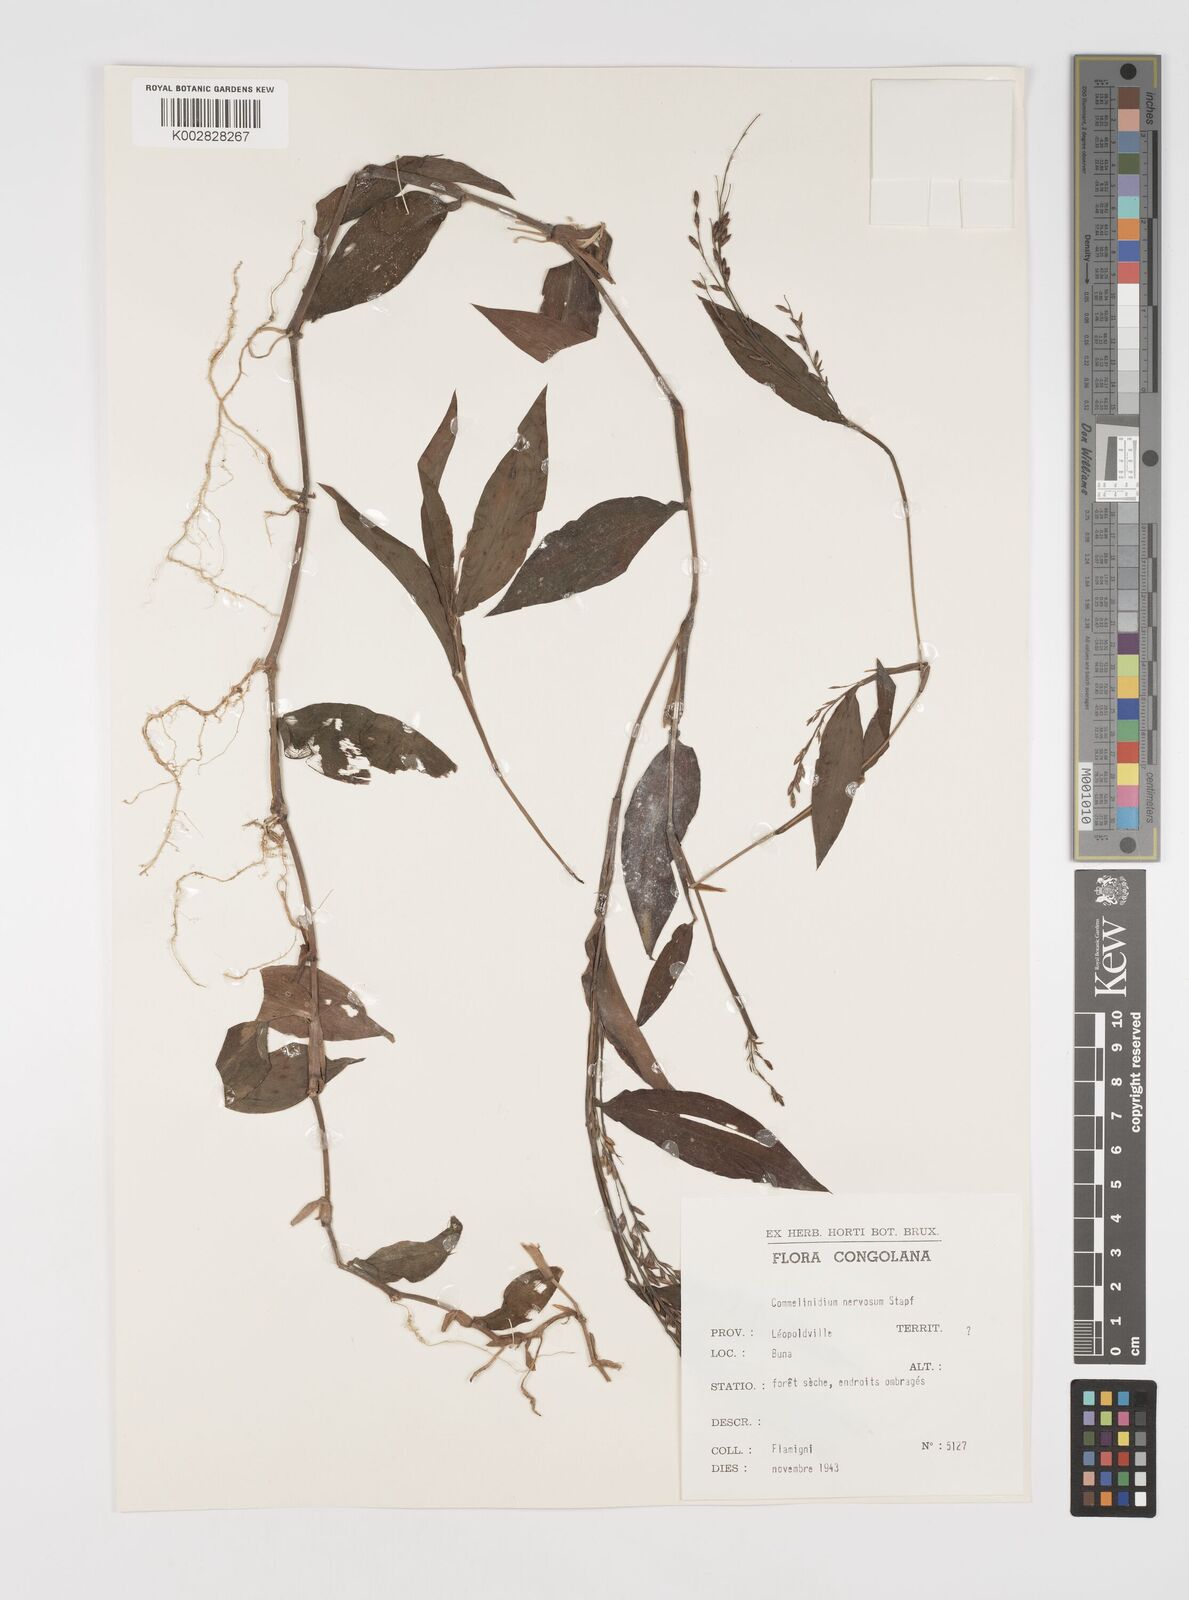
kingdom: Plantae
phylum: Tracheophyta
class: Liliopsida
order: Poales
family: Poaceae
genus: Acroceras
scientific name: Acroceras gabunense
